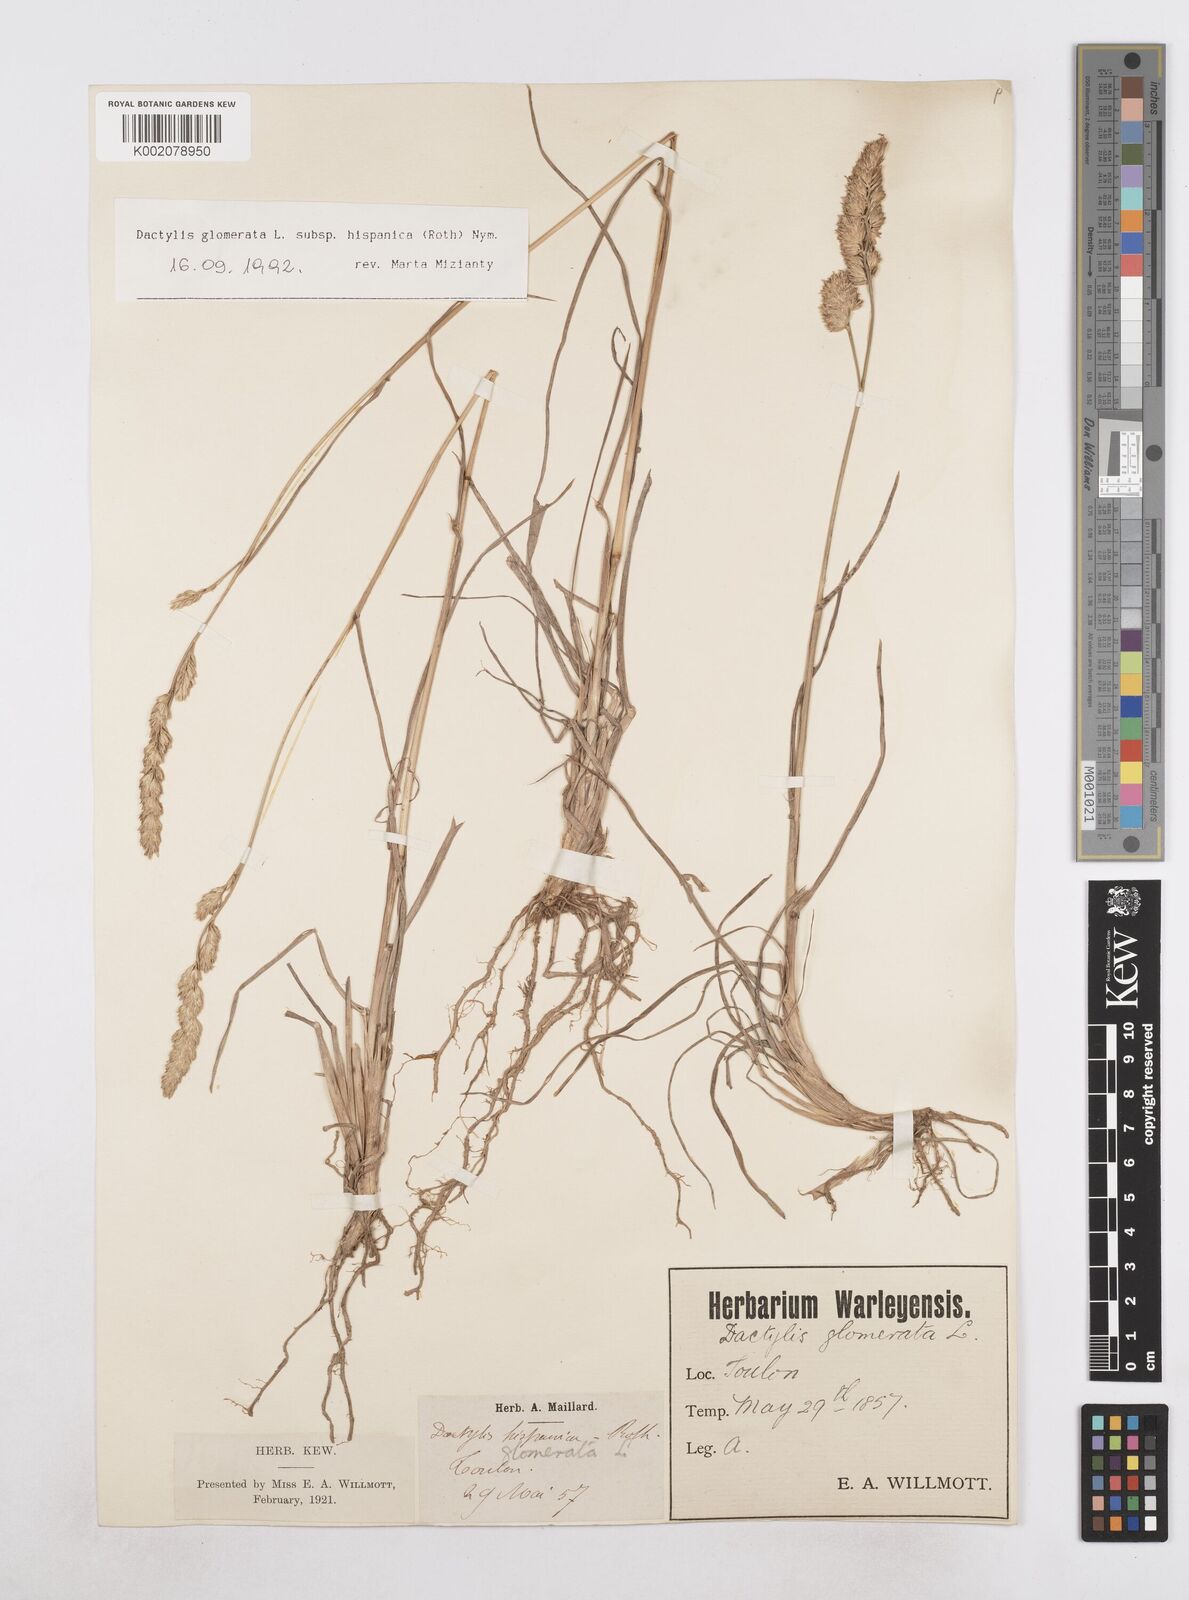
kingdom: Plantae
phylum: Tracheophyta
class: Liliopsida
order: Poales
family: Poaceae
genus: Dactylis
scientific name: Dactylis glomerata
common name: Orchardgrass
